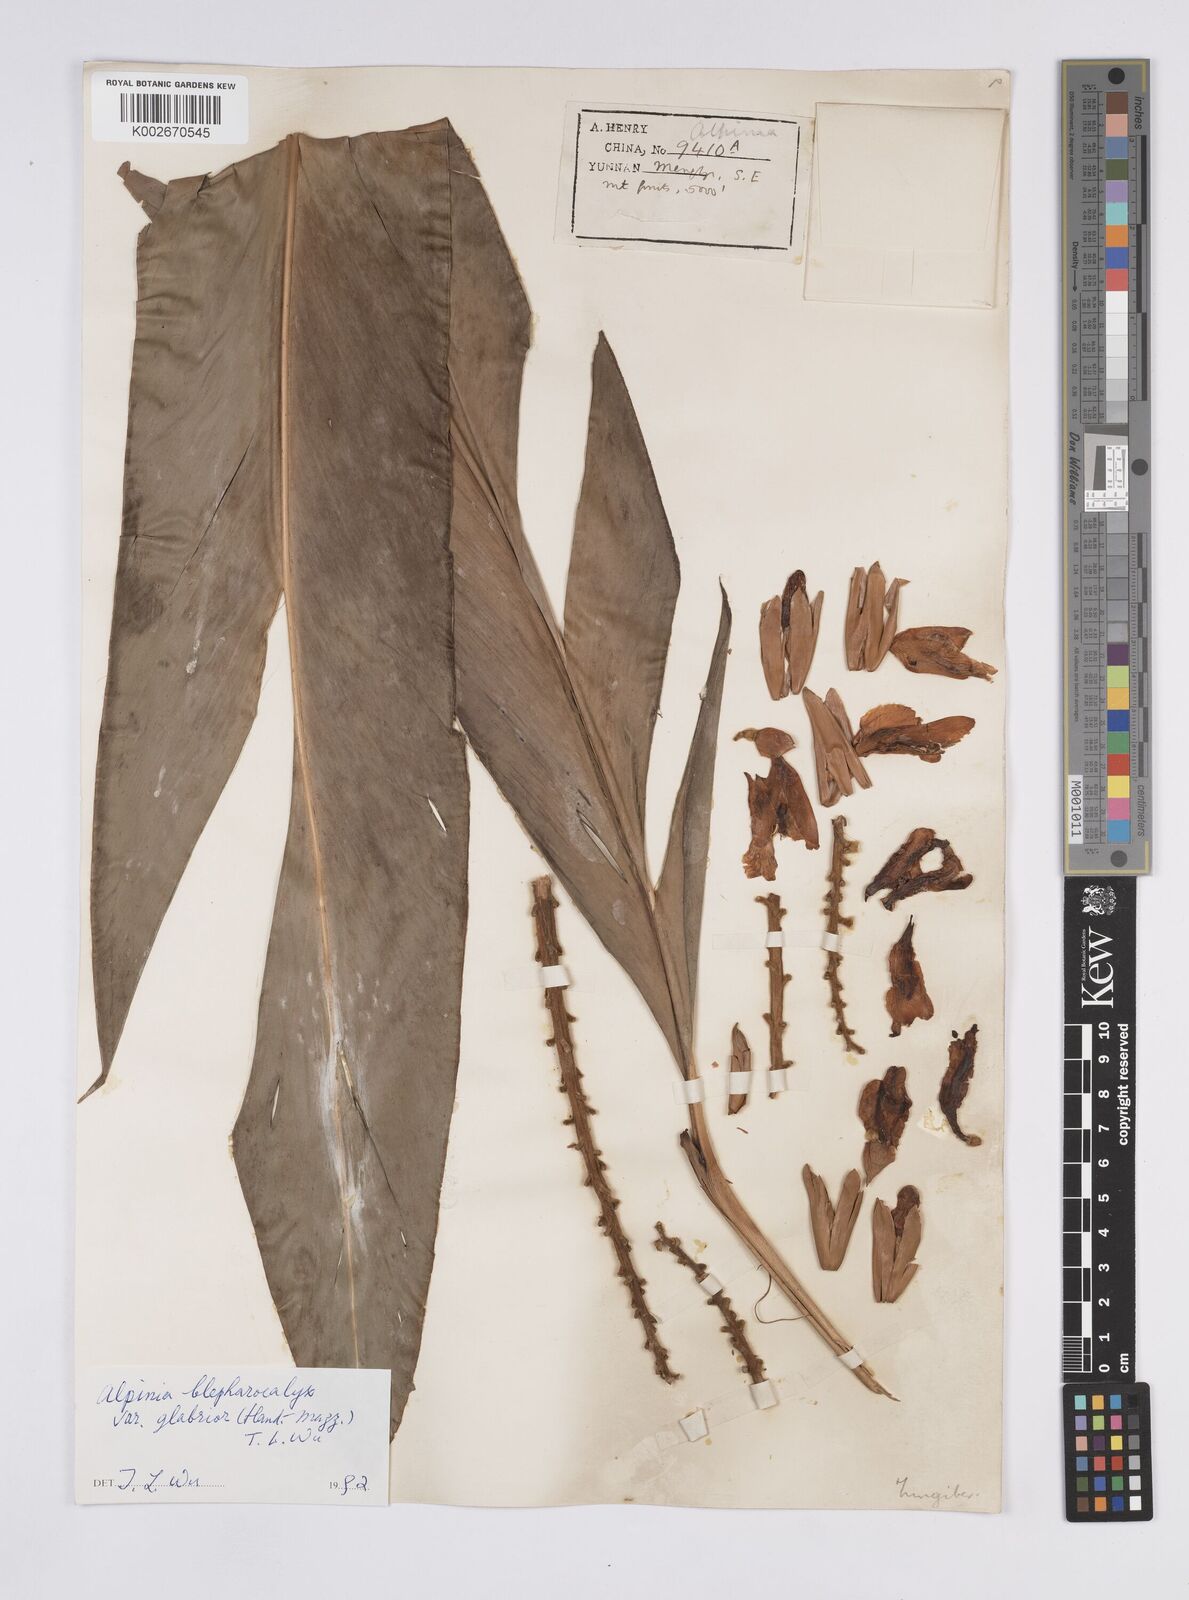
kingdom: Plantae
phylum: Tracheophyta
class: Liliopsida
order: Zingiberales
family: Zingiberaceae
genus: Alpinia
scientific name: Alpinia roxburghii
